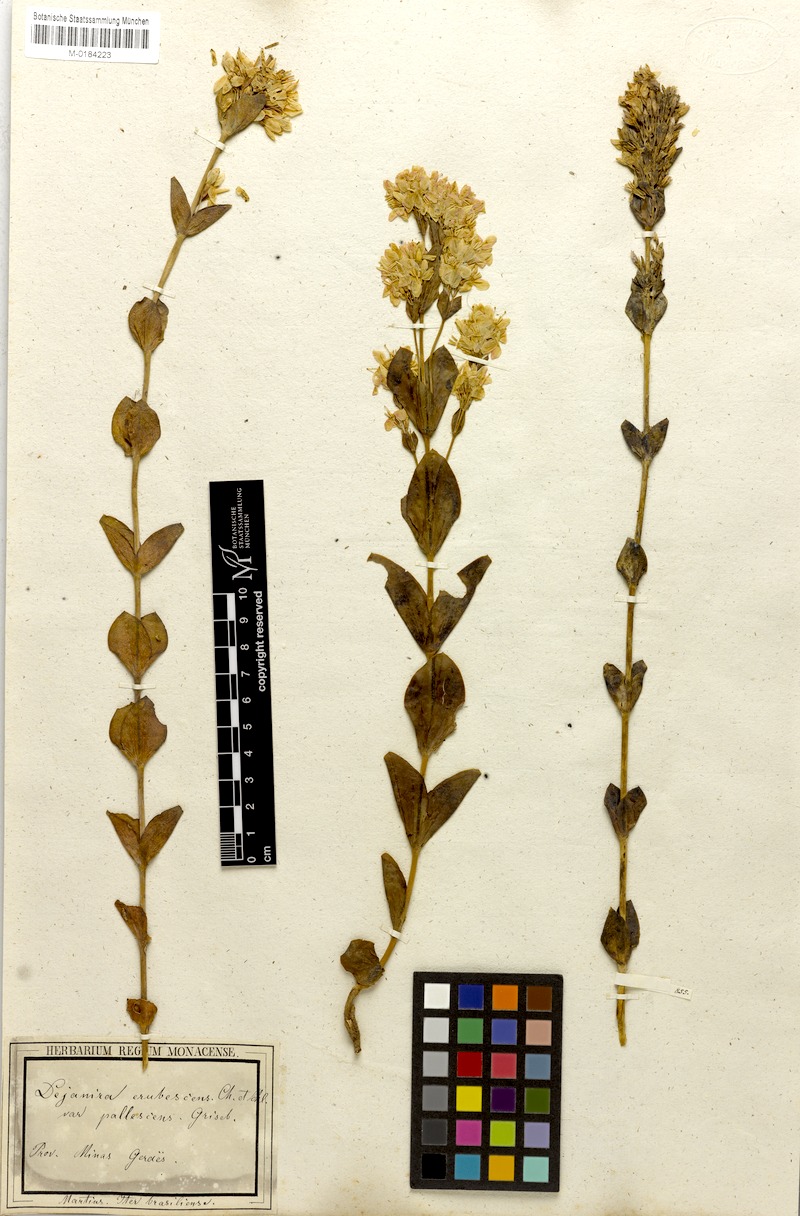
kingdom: Plantae
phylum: Tracheophyta
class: Magnoliopsida
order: Gentianales
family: Gentianaceae
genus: Deianira
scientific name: Deianira pallescens
